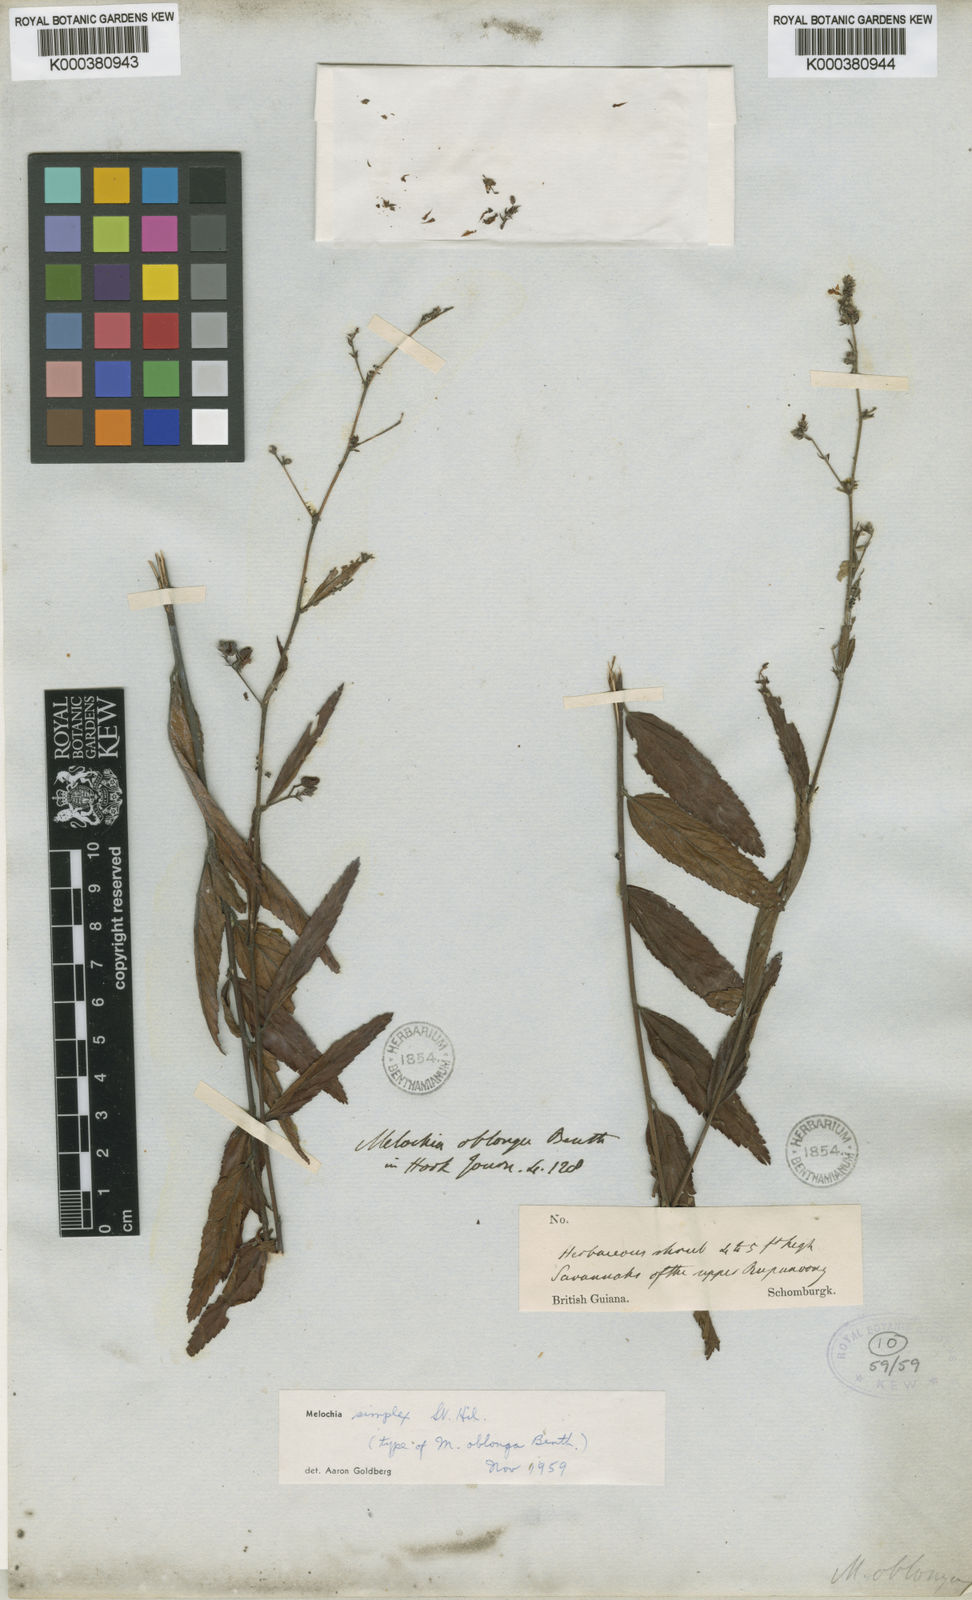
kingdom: Plantae
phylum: Tracheophyta
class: Magnoliopsida
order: Malvales
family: Malvaceae
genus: Melochia
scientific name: Melochia simplex
